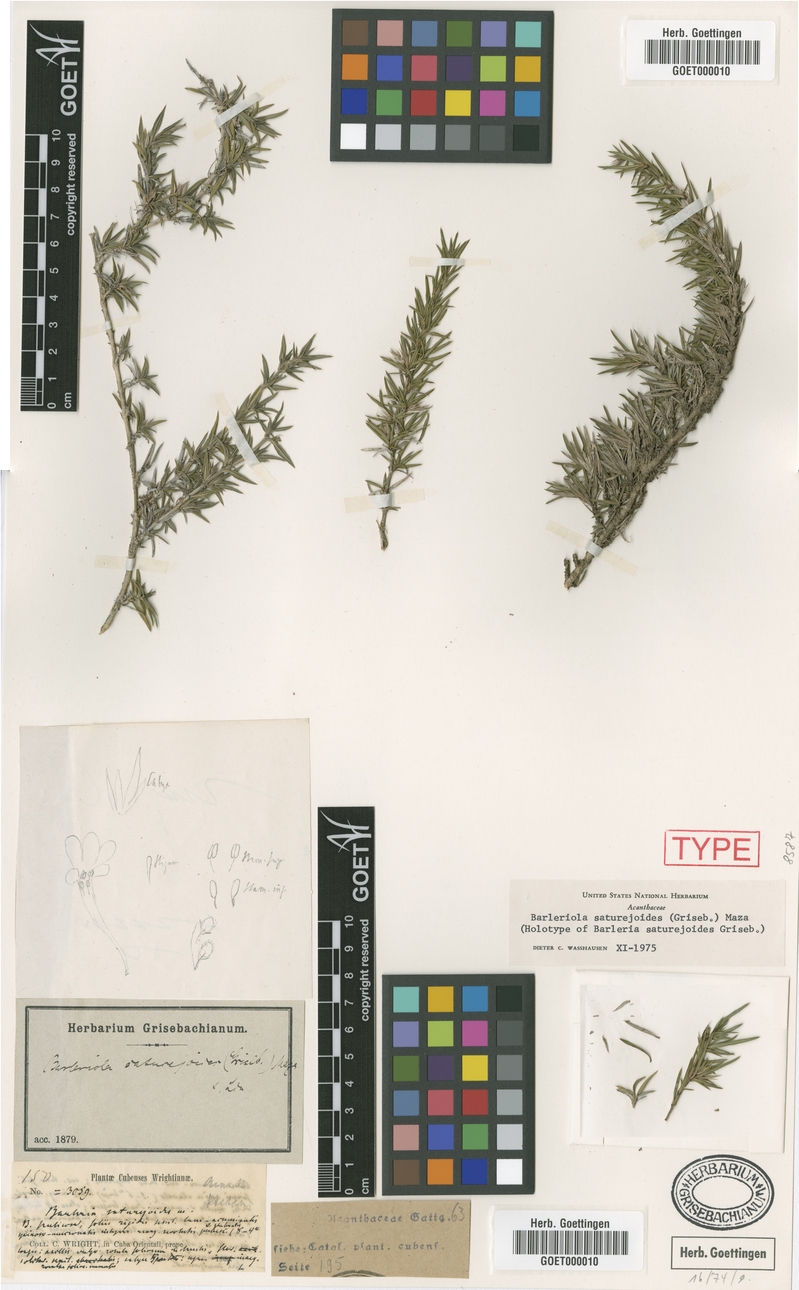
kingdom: Plantae
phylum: Tracheophyta
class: Magnoliopsida
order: Lamiales
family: Acanthaceae
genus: Barleriola
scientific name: Barleriola saturejoides
